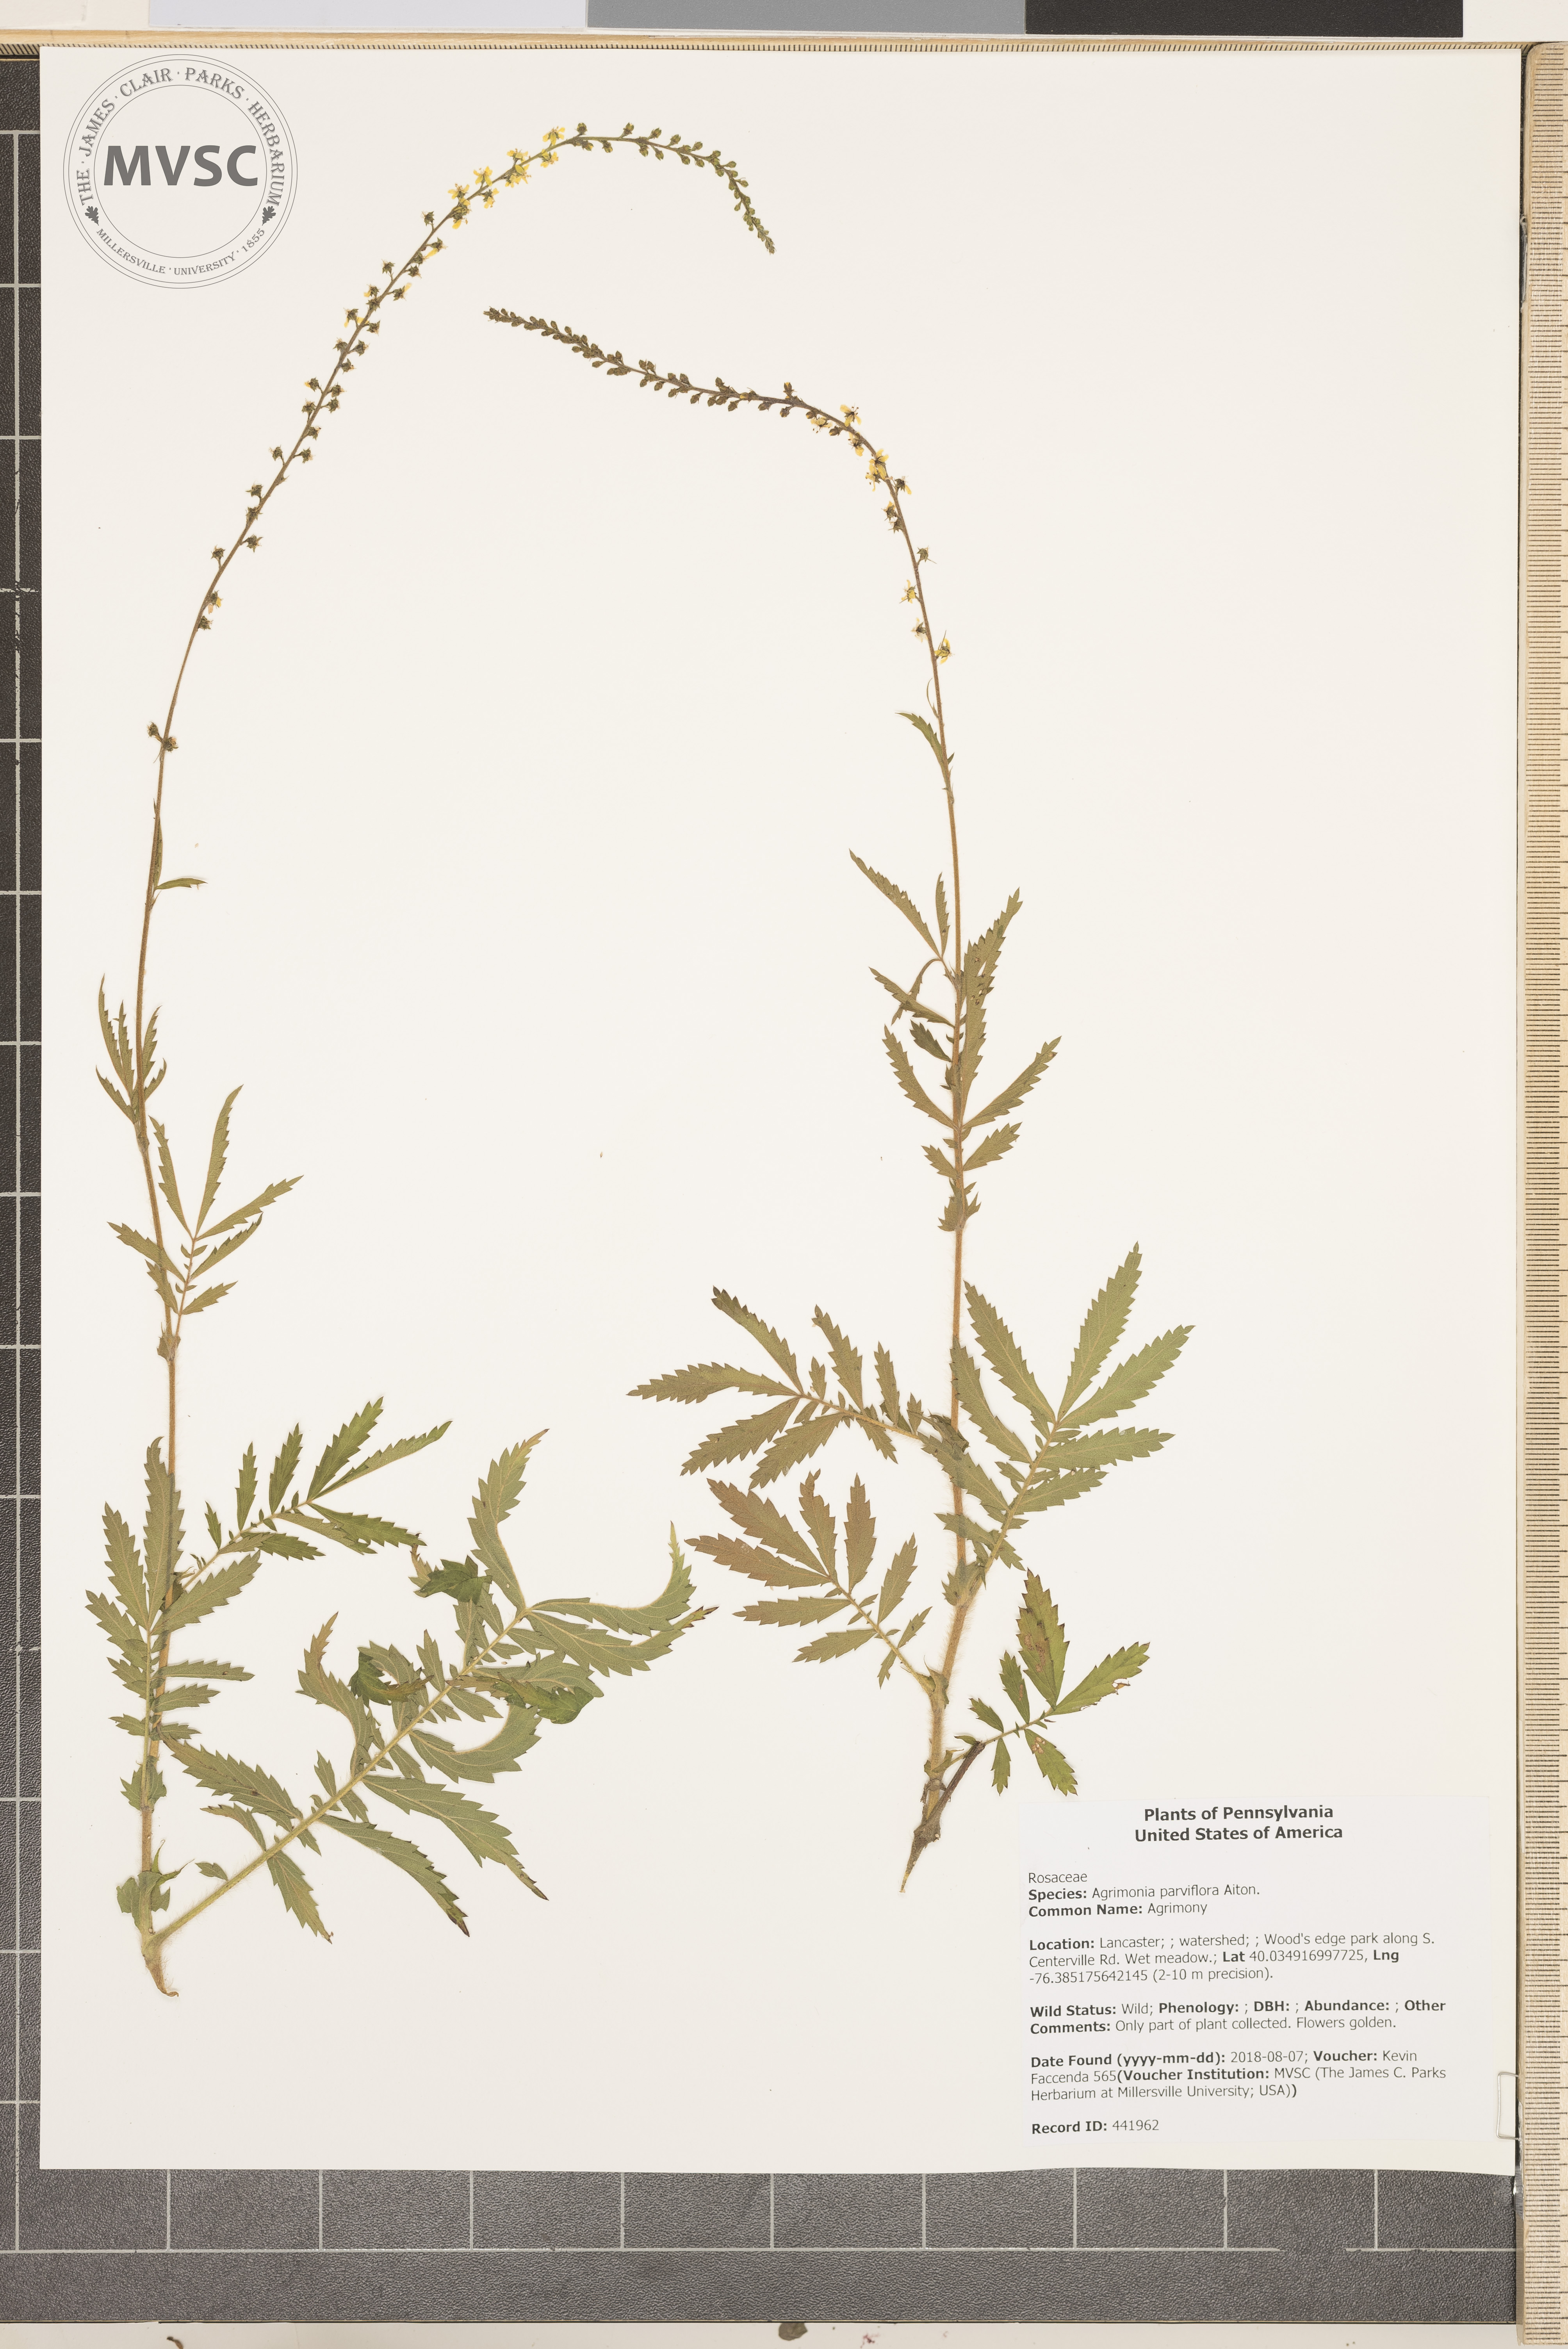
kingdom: Plantae
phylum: Tracheophyta
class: Magnoliopsida
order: Rosales
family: Rosaceae
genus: Agrimonia
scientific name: Agrimonia parviflora
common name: Agrimony
